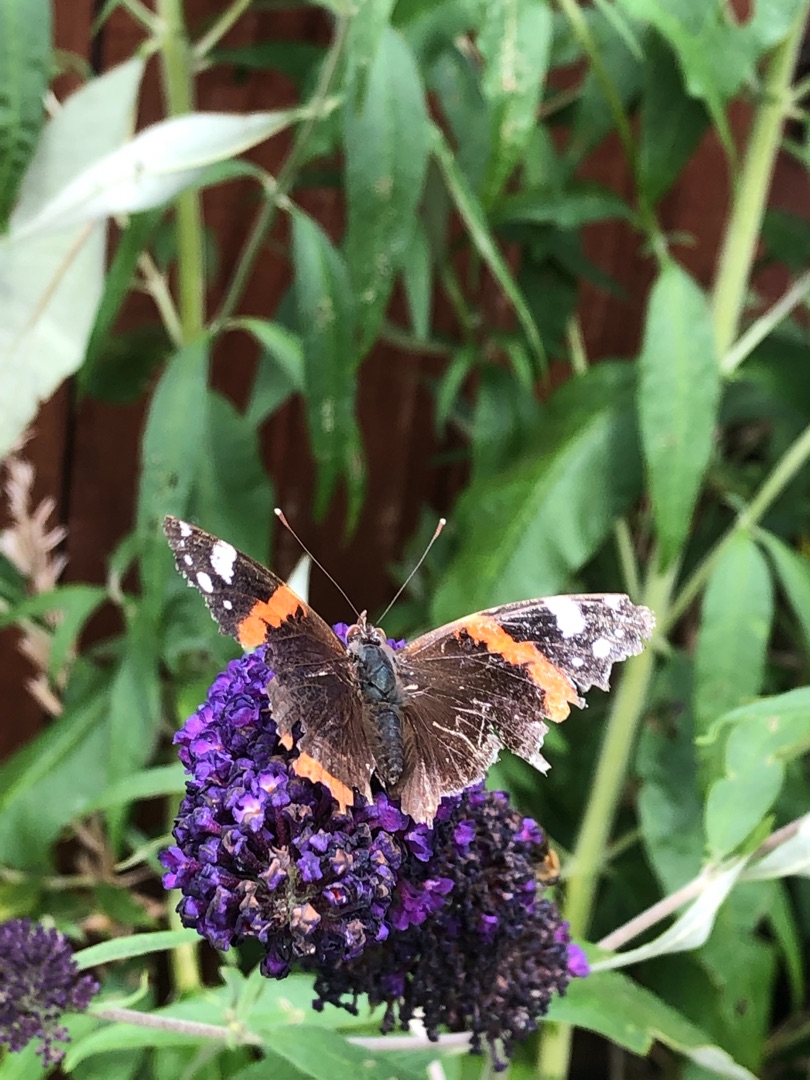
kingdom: Animalia
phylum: Arthropoda
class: Insecta
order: Lepidoptera
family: Nymphalidae
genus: Vanessa
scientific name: Vanessa atalanta
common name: Admiral
